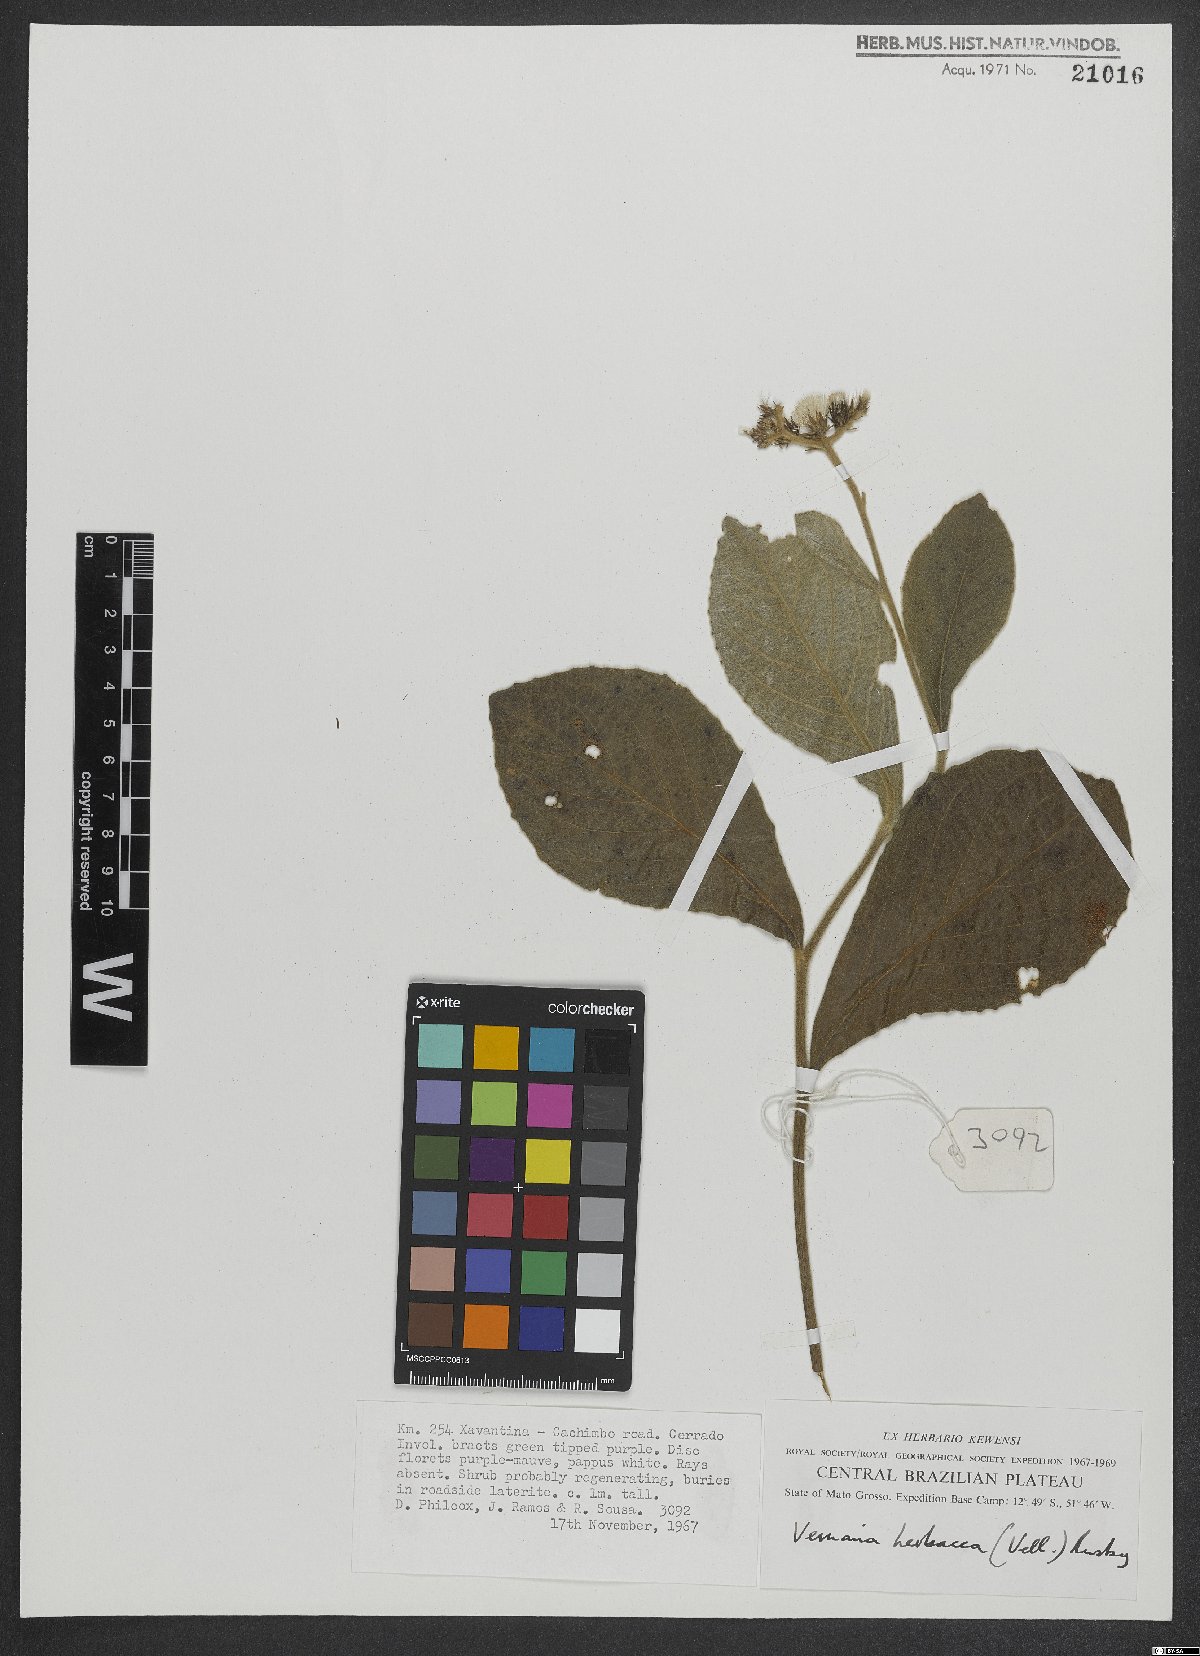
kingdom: Plantae
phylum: Tracheophyta
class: Magnoliopsida
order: Asterales
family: Asteraceae
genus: Chrysolaena
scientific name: Chrysolaena obovata
